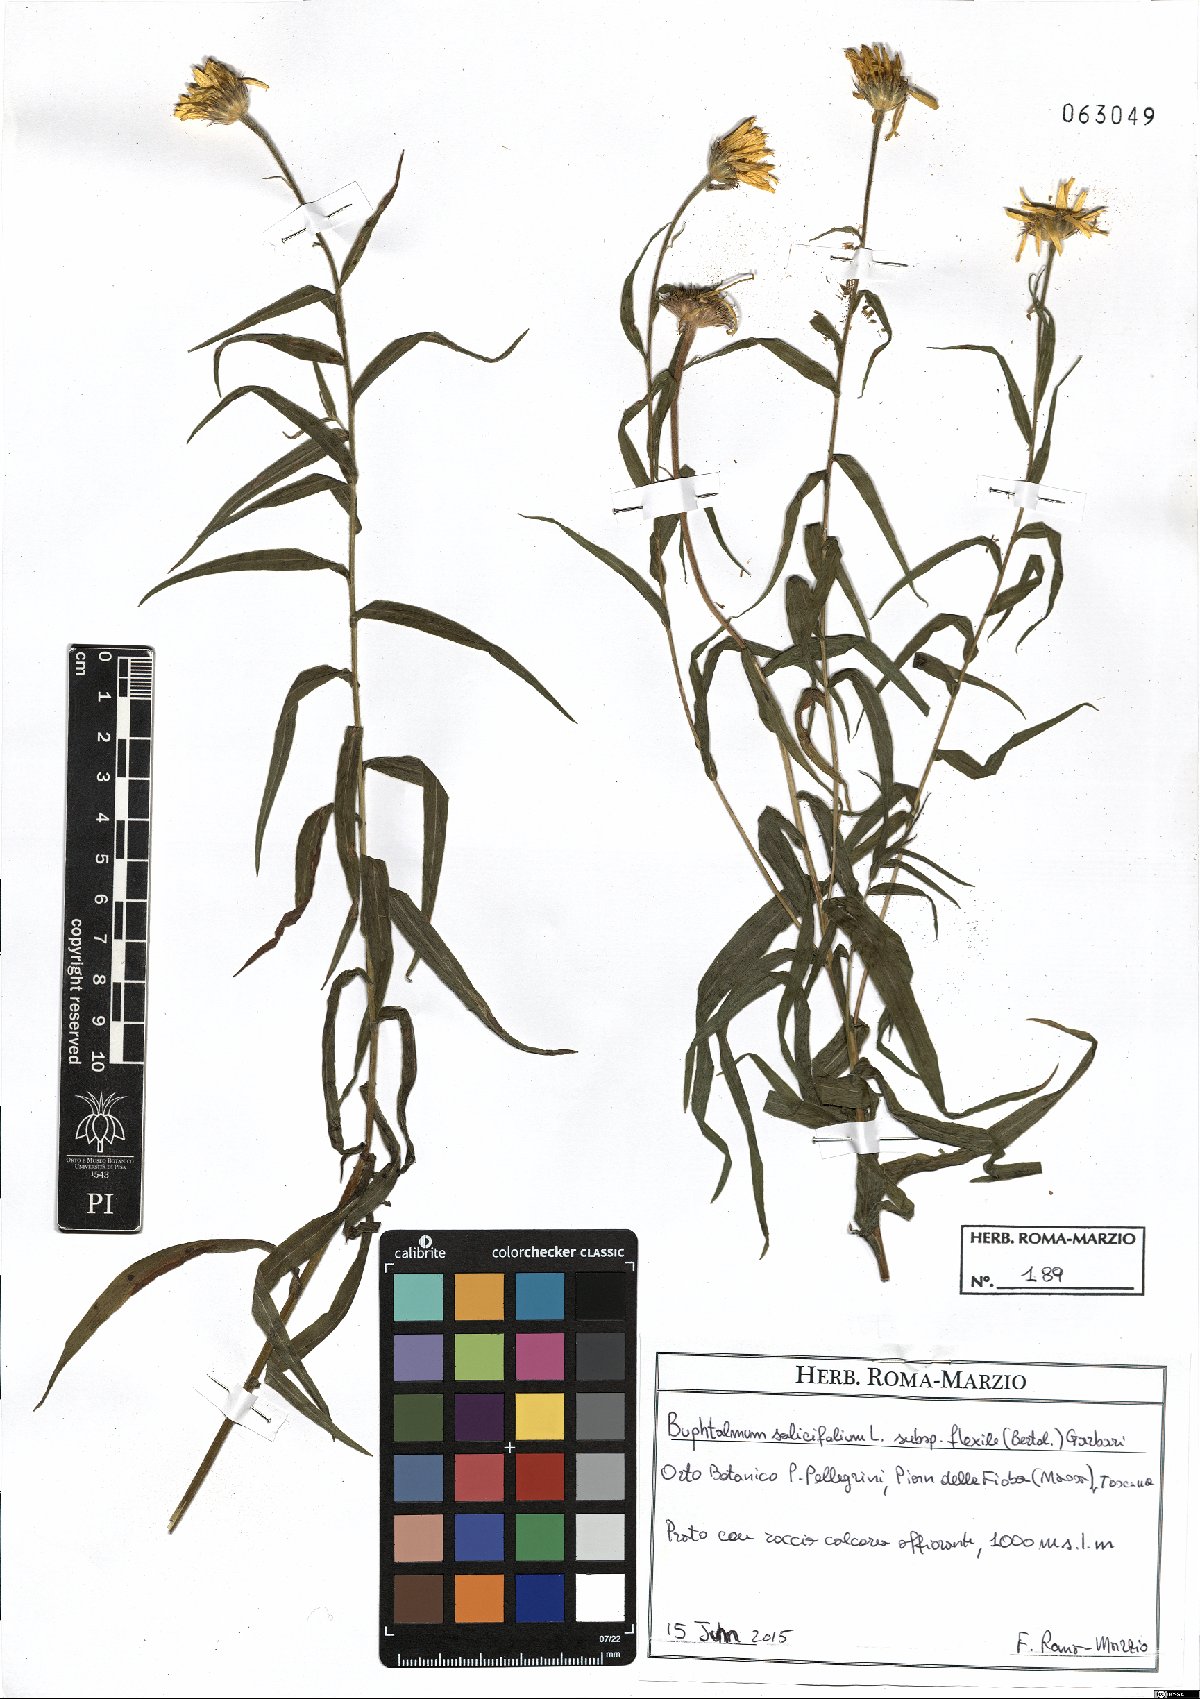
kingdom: Plantae
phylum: Tracheophyta
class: Magnoliopsida
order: Asterales
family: Asteraceae
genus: Buphthalmum
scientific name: Buphthalmum salicifolium
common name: Willow-leaved yellow-oxeye
